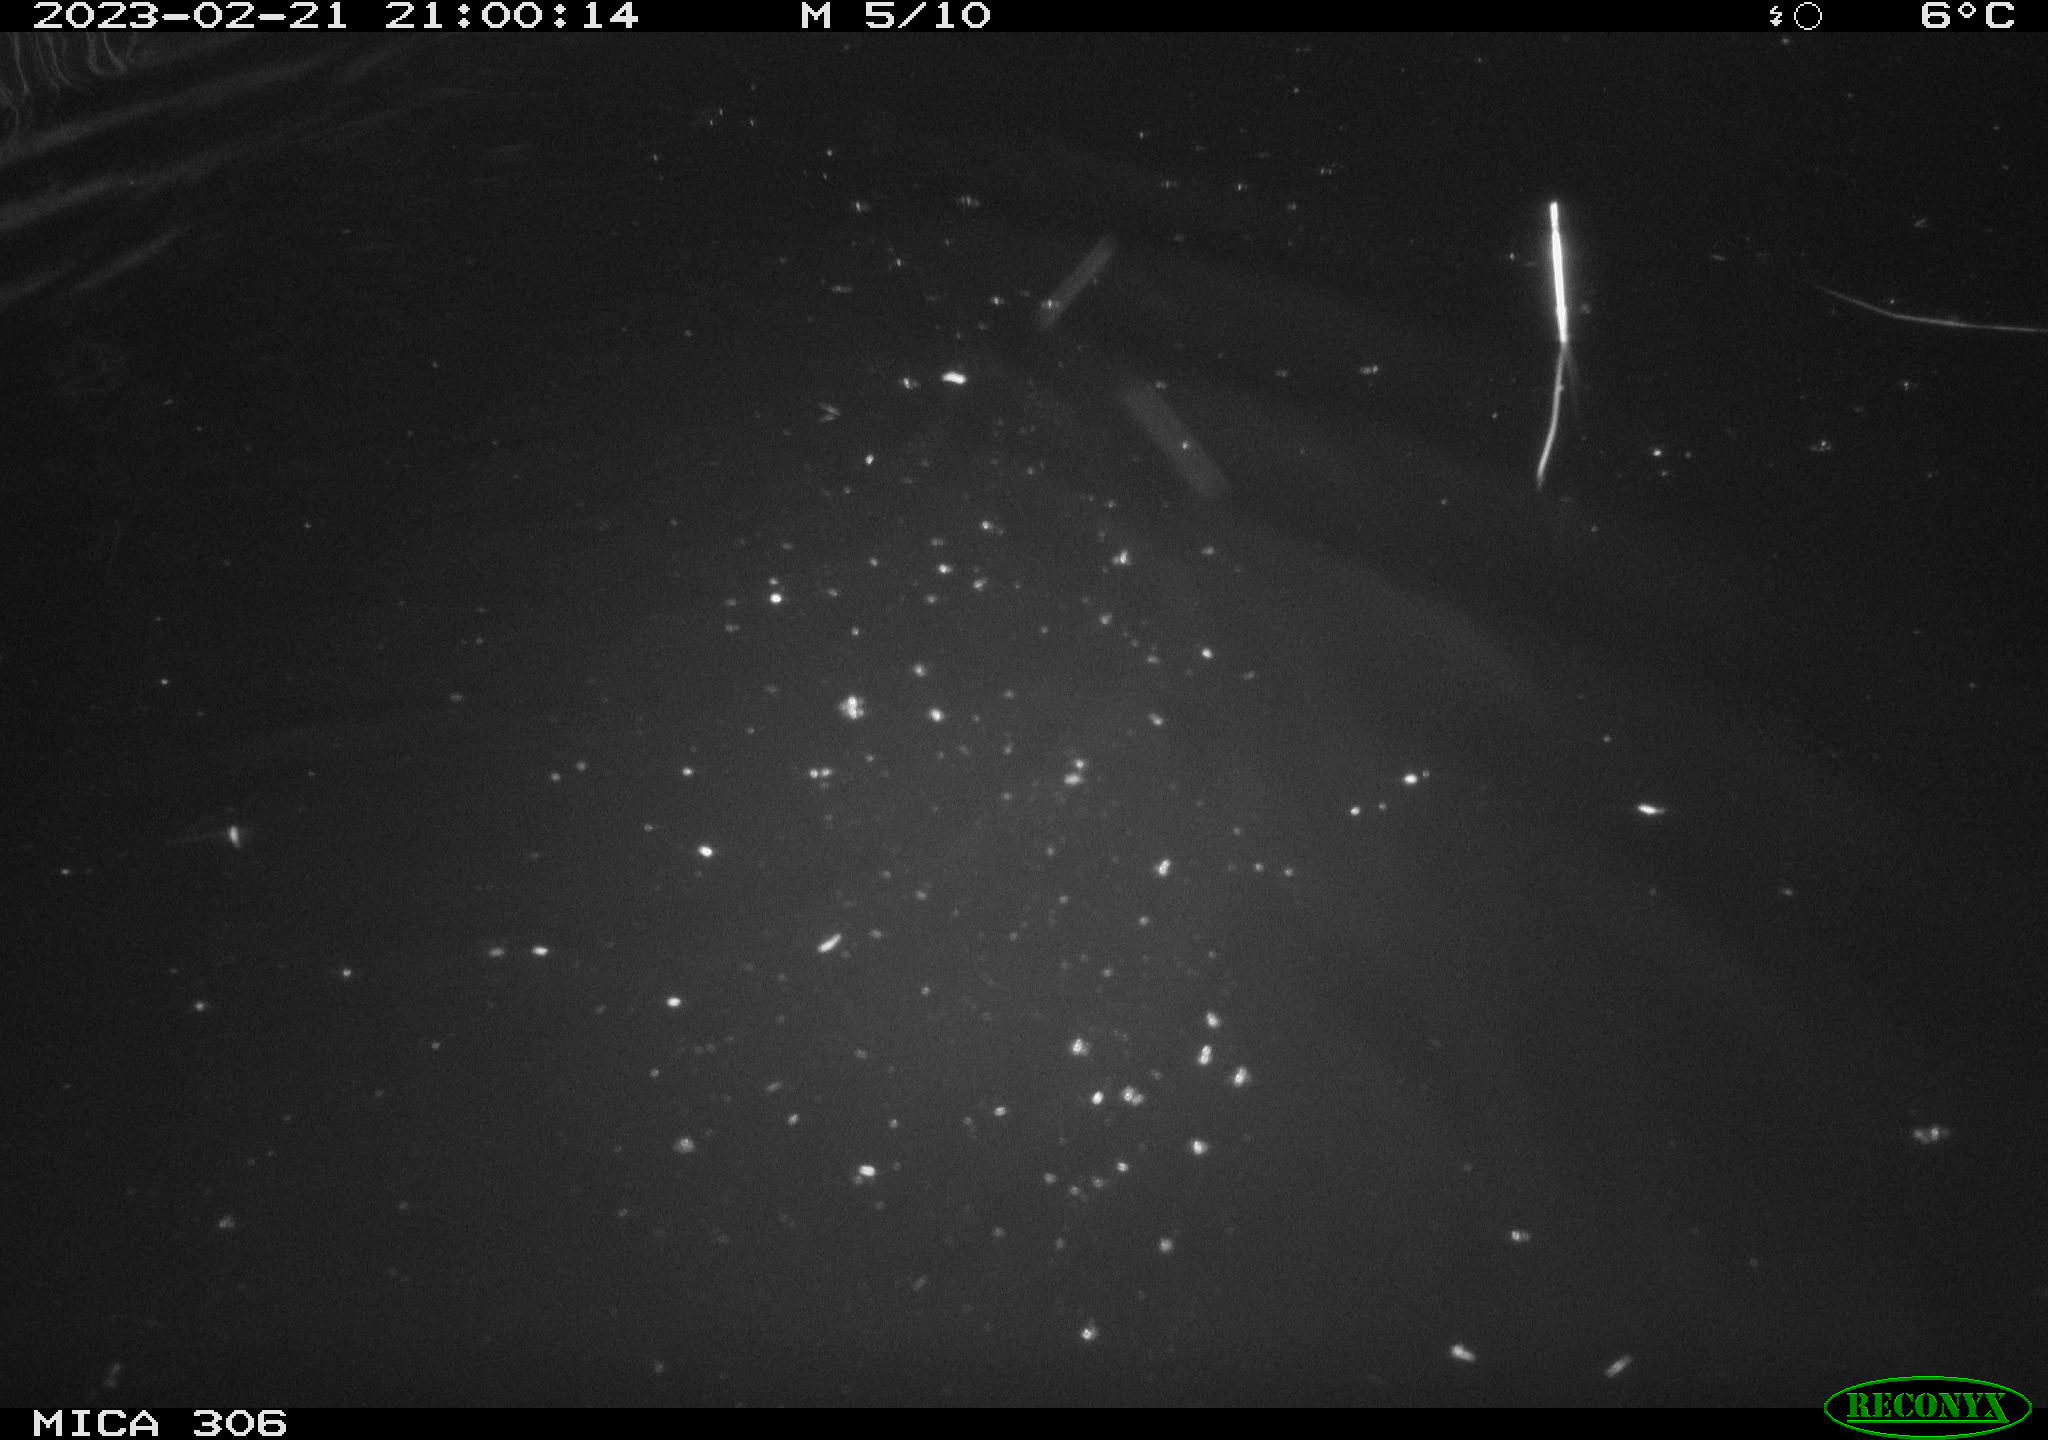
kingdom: Animalia
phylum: Chordata
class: Mammalia
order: Rodentia
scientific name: Rodentia
